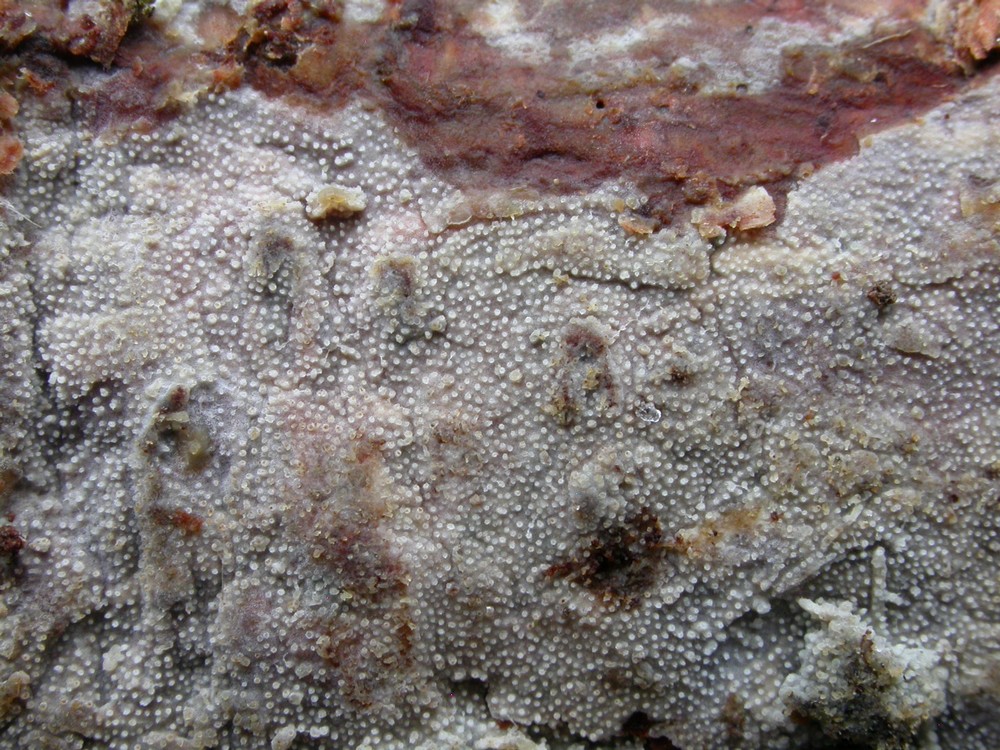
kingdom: Fungi
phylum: Basidiomycota
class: Agaricomycetes
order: Hymenochaetales
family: Rickenellaceae
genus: Resinicium
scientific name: Resinicium bicolor
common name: almindelig vokstand
